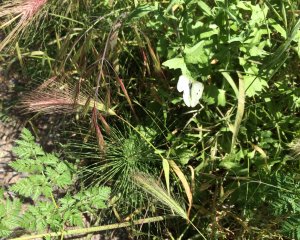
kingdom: Animalia
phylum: Arthropoda
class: Insecta
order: Lepidoptera
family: Pieridae
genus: Pieris
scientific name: Pieris rapae
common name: Cabbage White
